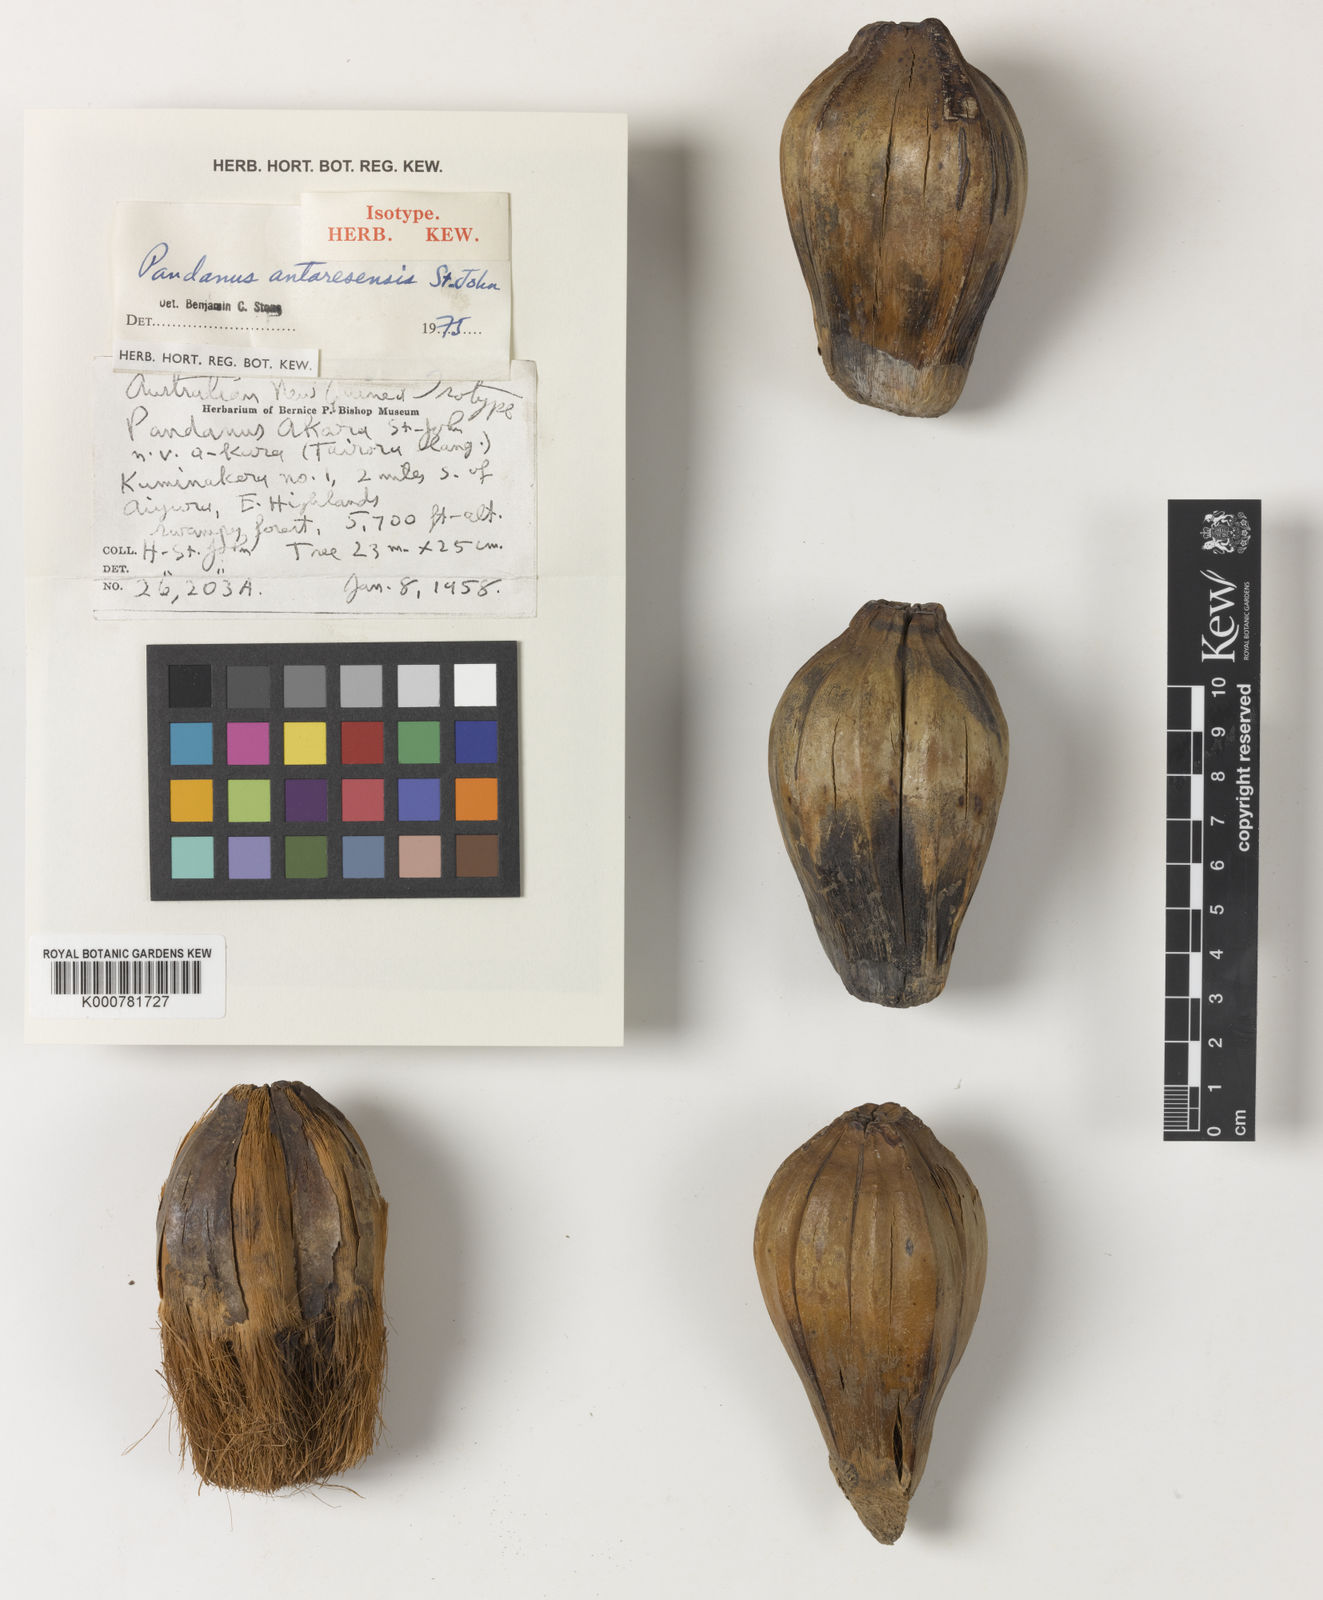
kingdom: Plantae
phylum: Tracheophyta
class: Liliopsida
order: Pandanales
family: Pandanaceae
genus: Pandanus
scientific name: Pandanus
